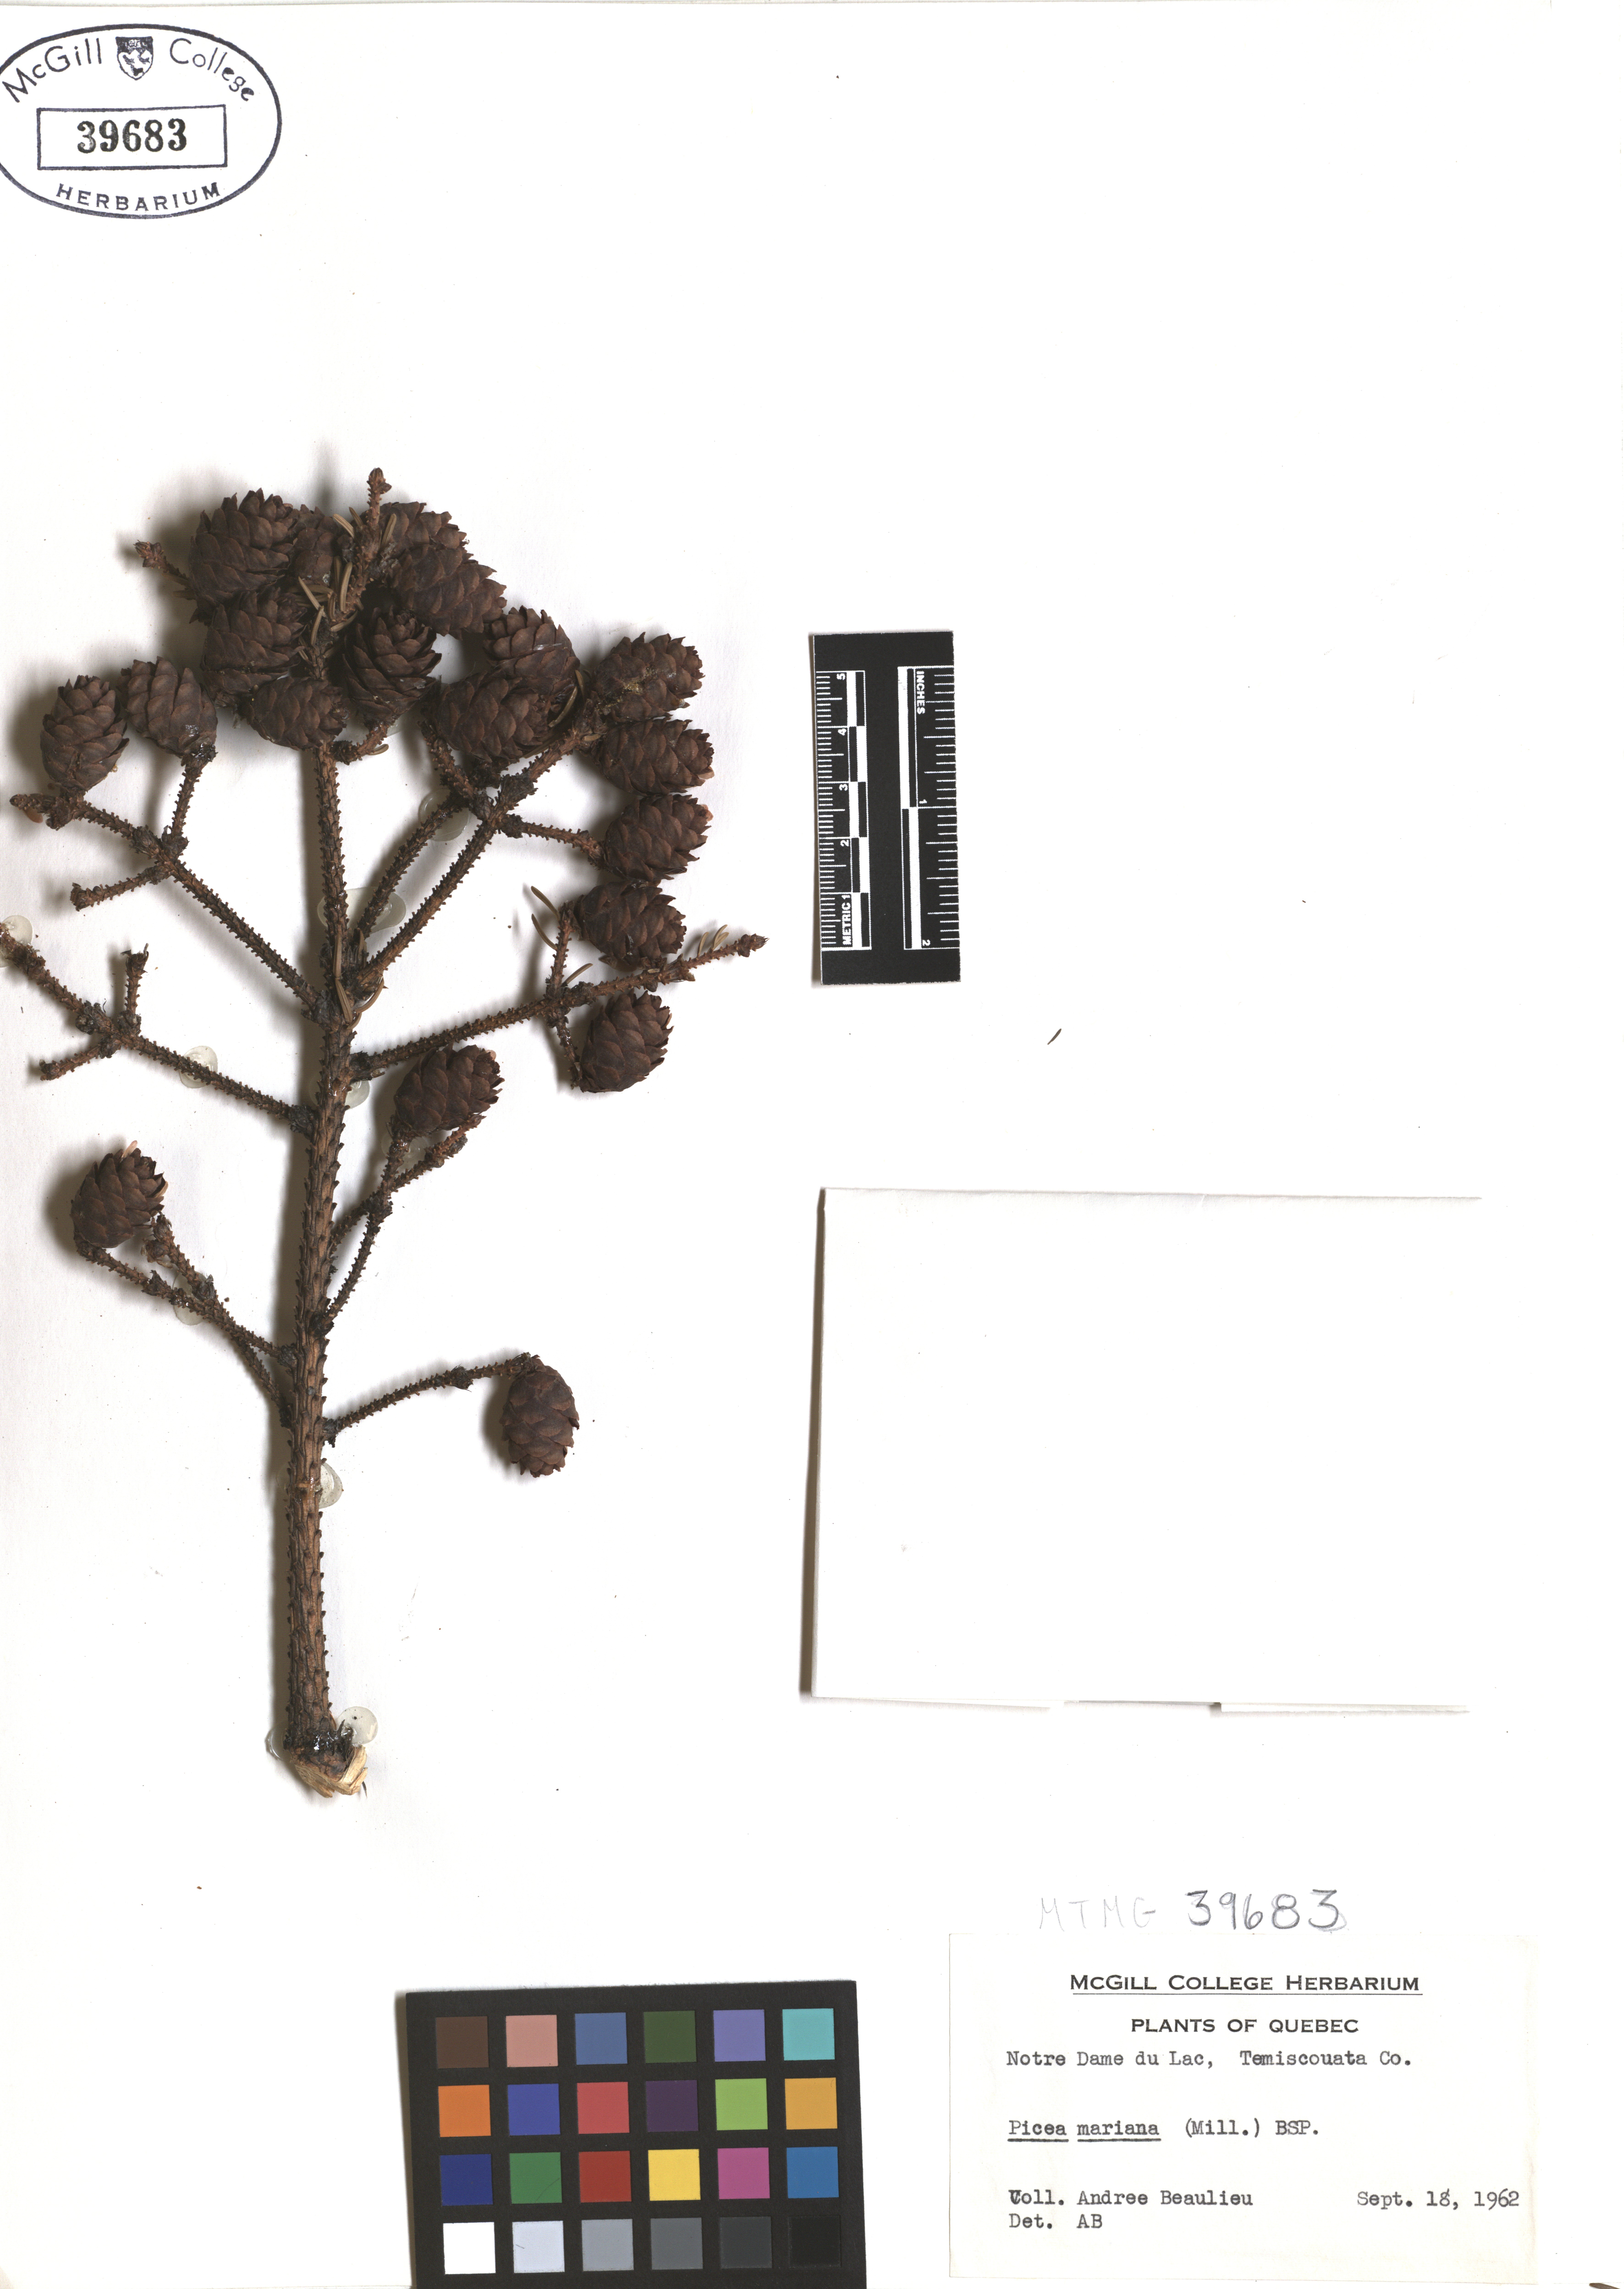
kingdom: Plantae
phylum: Tracheophyta
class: Pinopsida
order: Pinales
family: Pinaceae
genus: Picea
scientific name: Picea mariana
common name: Black spruce
